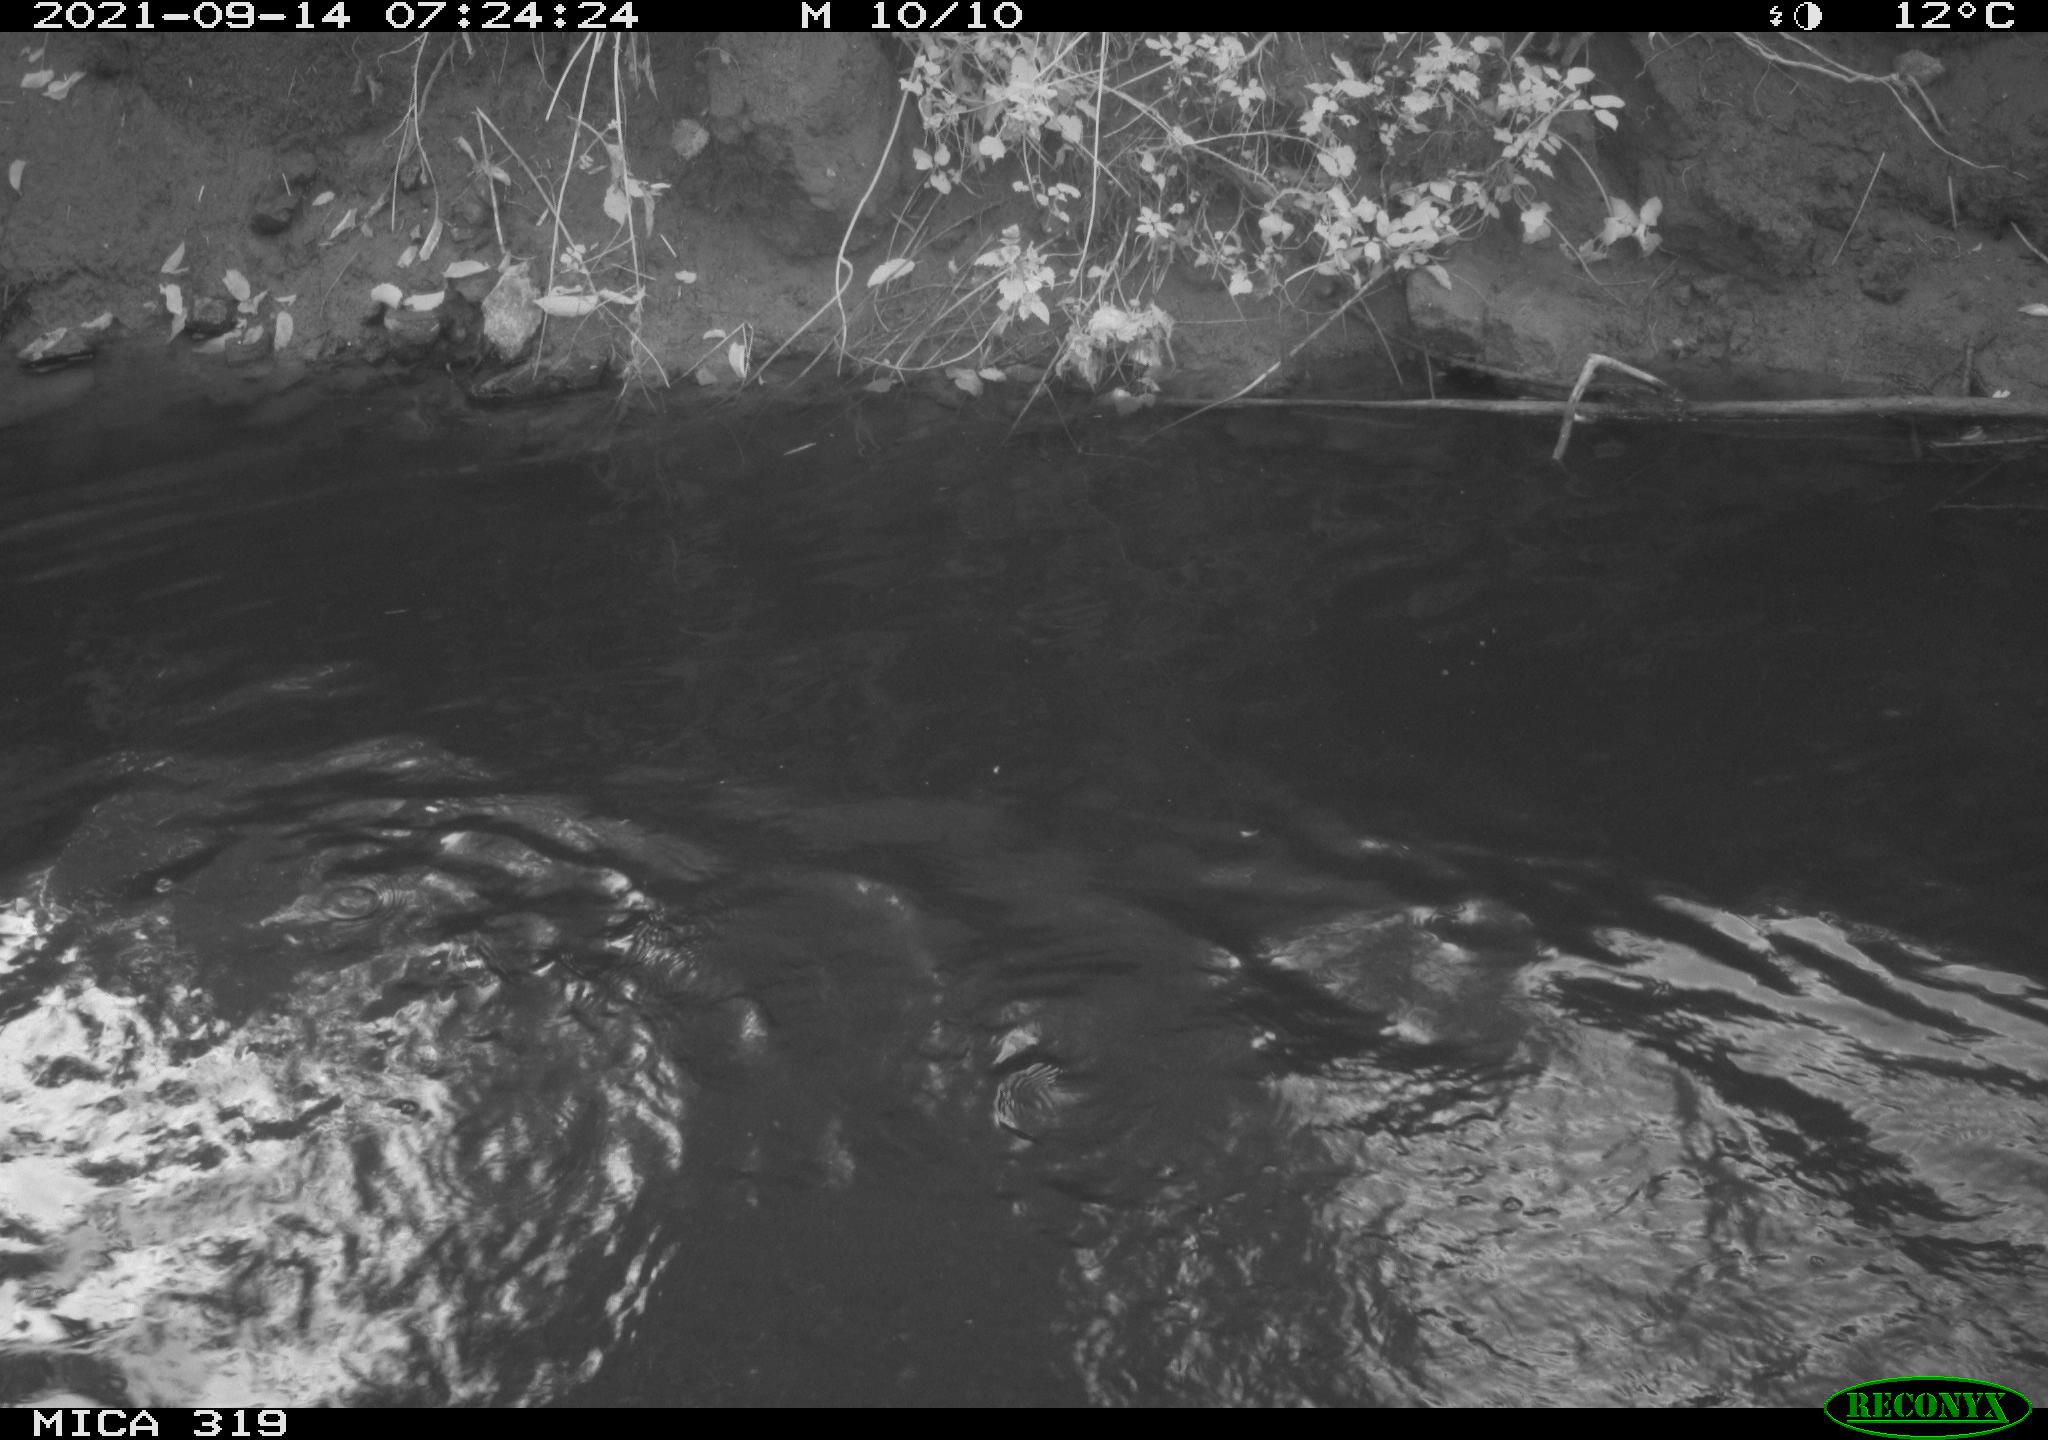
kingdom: Animalia
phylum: Chordata
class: Aves
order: Anseriformes
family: Anatidae
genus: Anas
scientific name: Anas platyrhynchos
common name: Mallard
